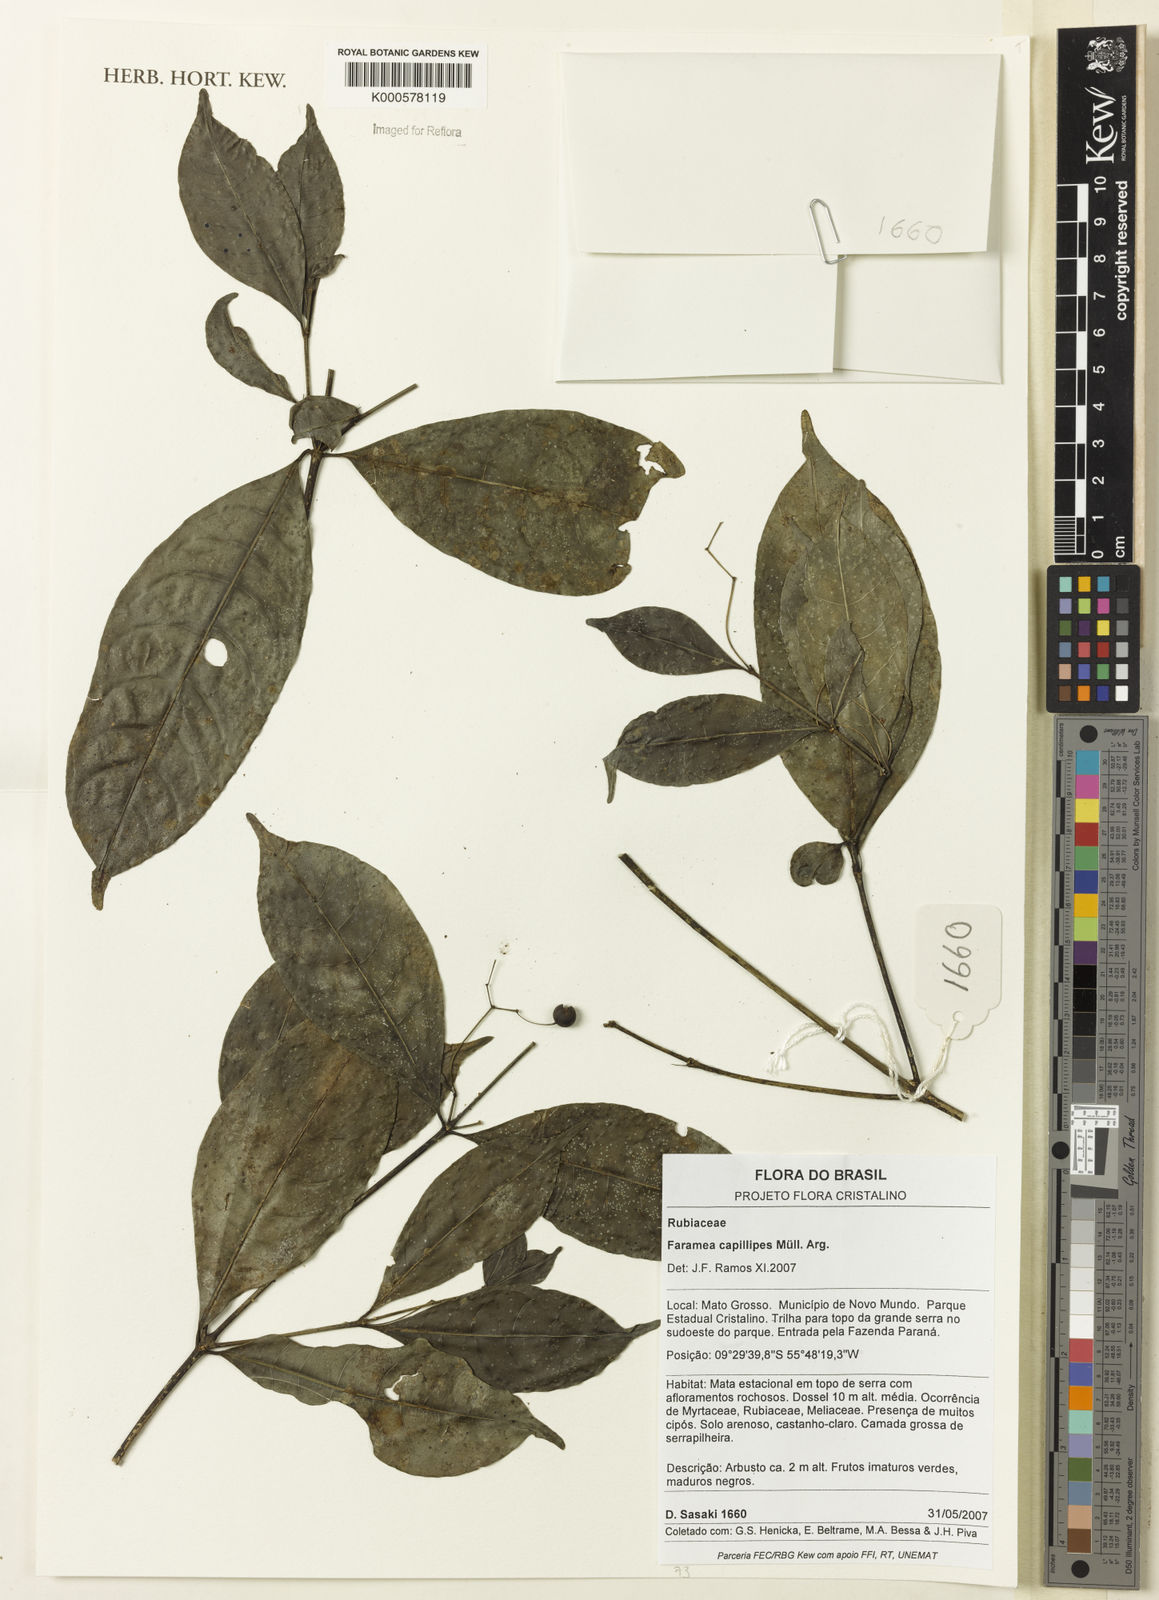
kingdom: Plantae
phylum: Tracheophyta
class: Magnoliopsida
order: Gentianales
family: Rubiaceae
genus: Faramea
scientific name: Faramea
